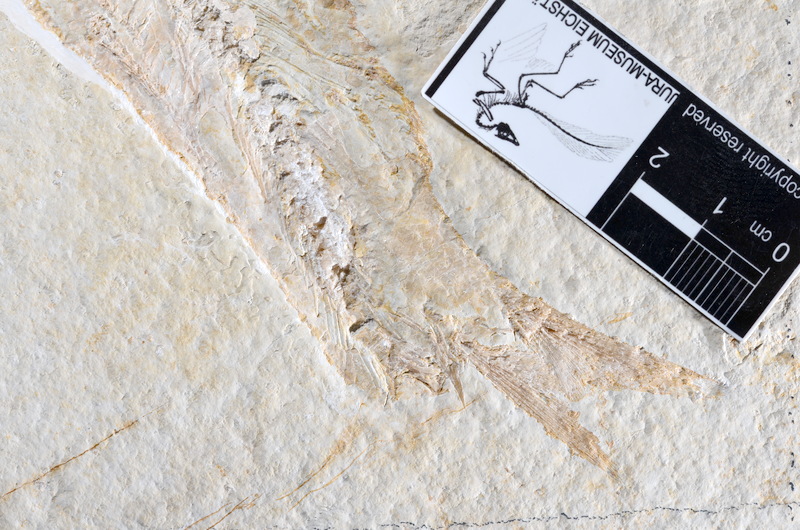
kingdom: Animalia
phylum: Chordata
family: Ascalaboidae
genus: Tharsis
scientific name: Tharsis dubius
